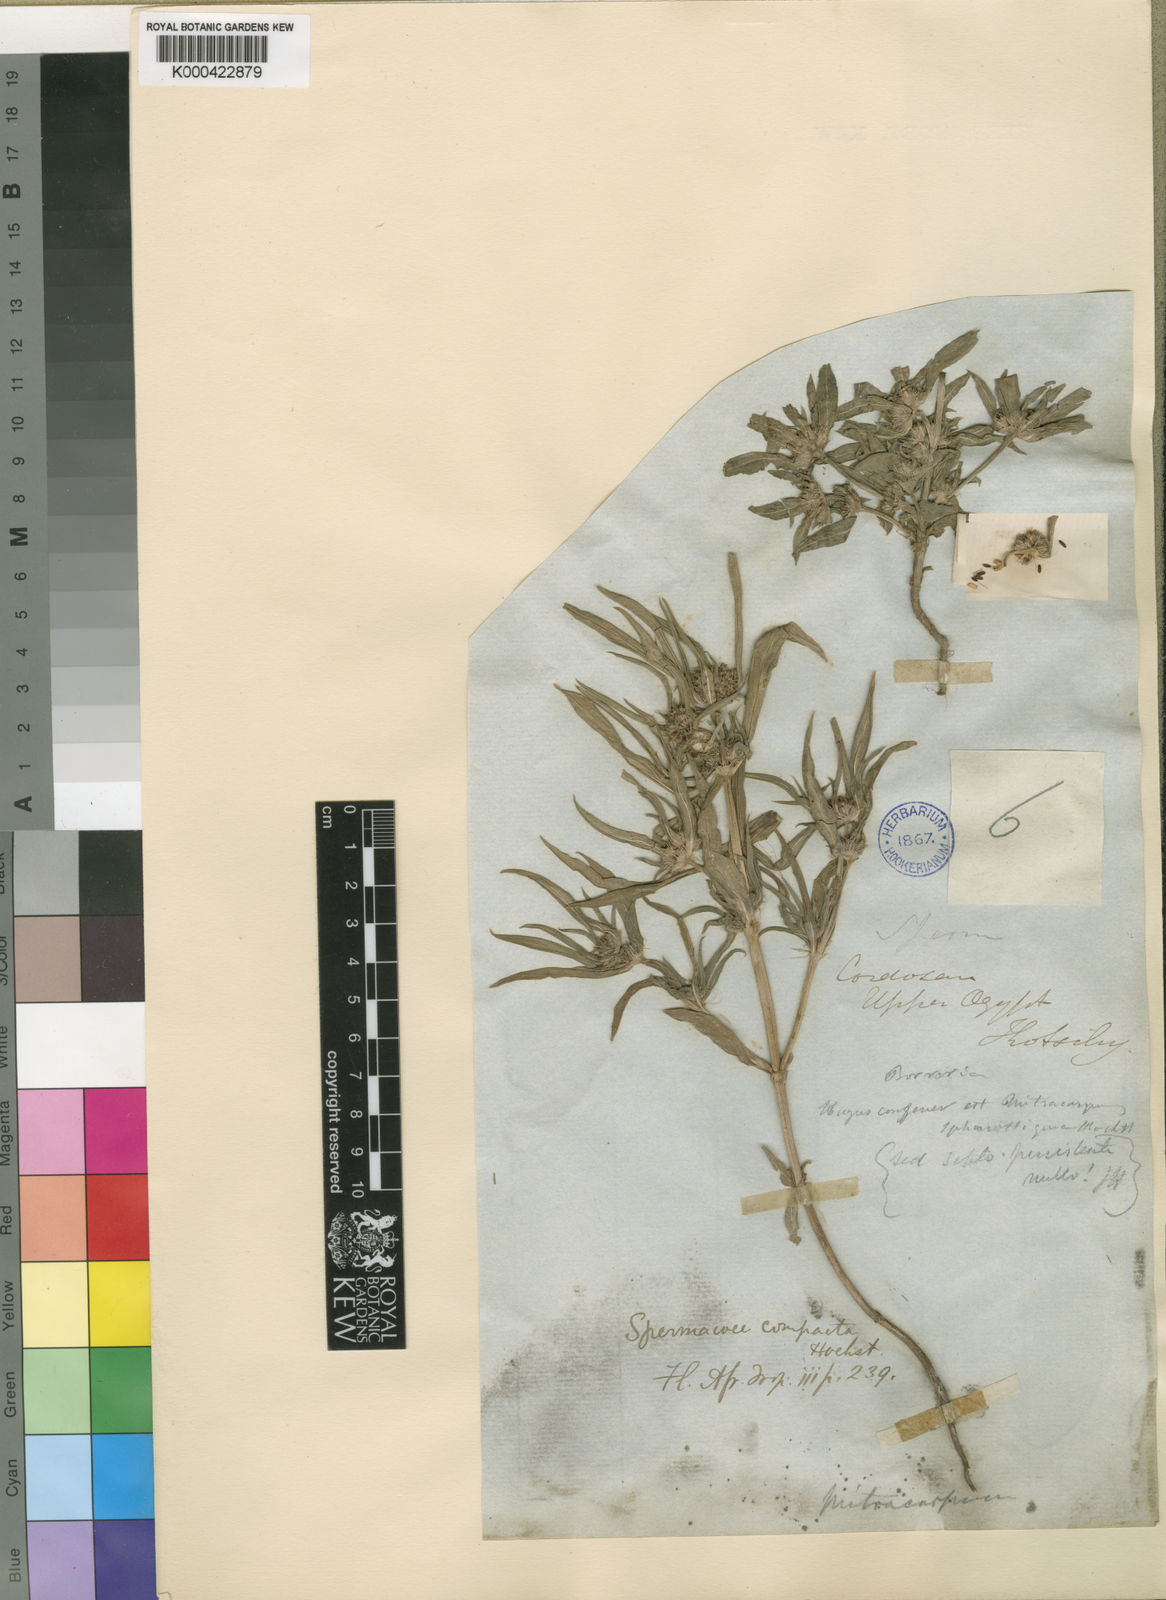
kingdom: Plantae
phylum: Tracheophyta
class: Magnoliopsida
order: Gentianales
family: Rubiaceae
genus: Spermacoce
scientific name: Spermacoce chaetocephala
